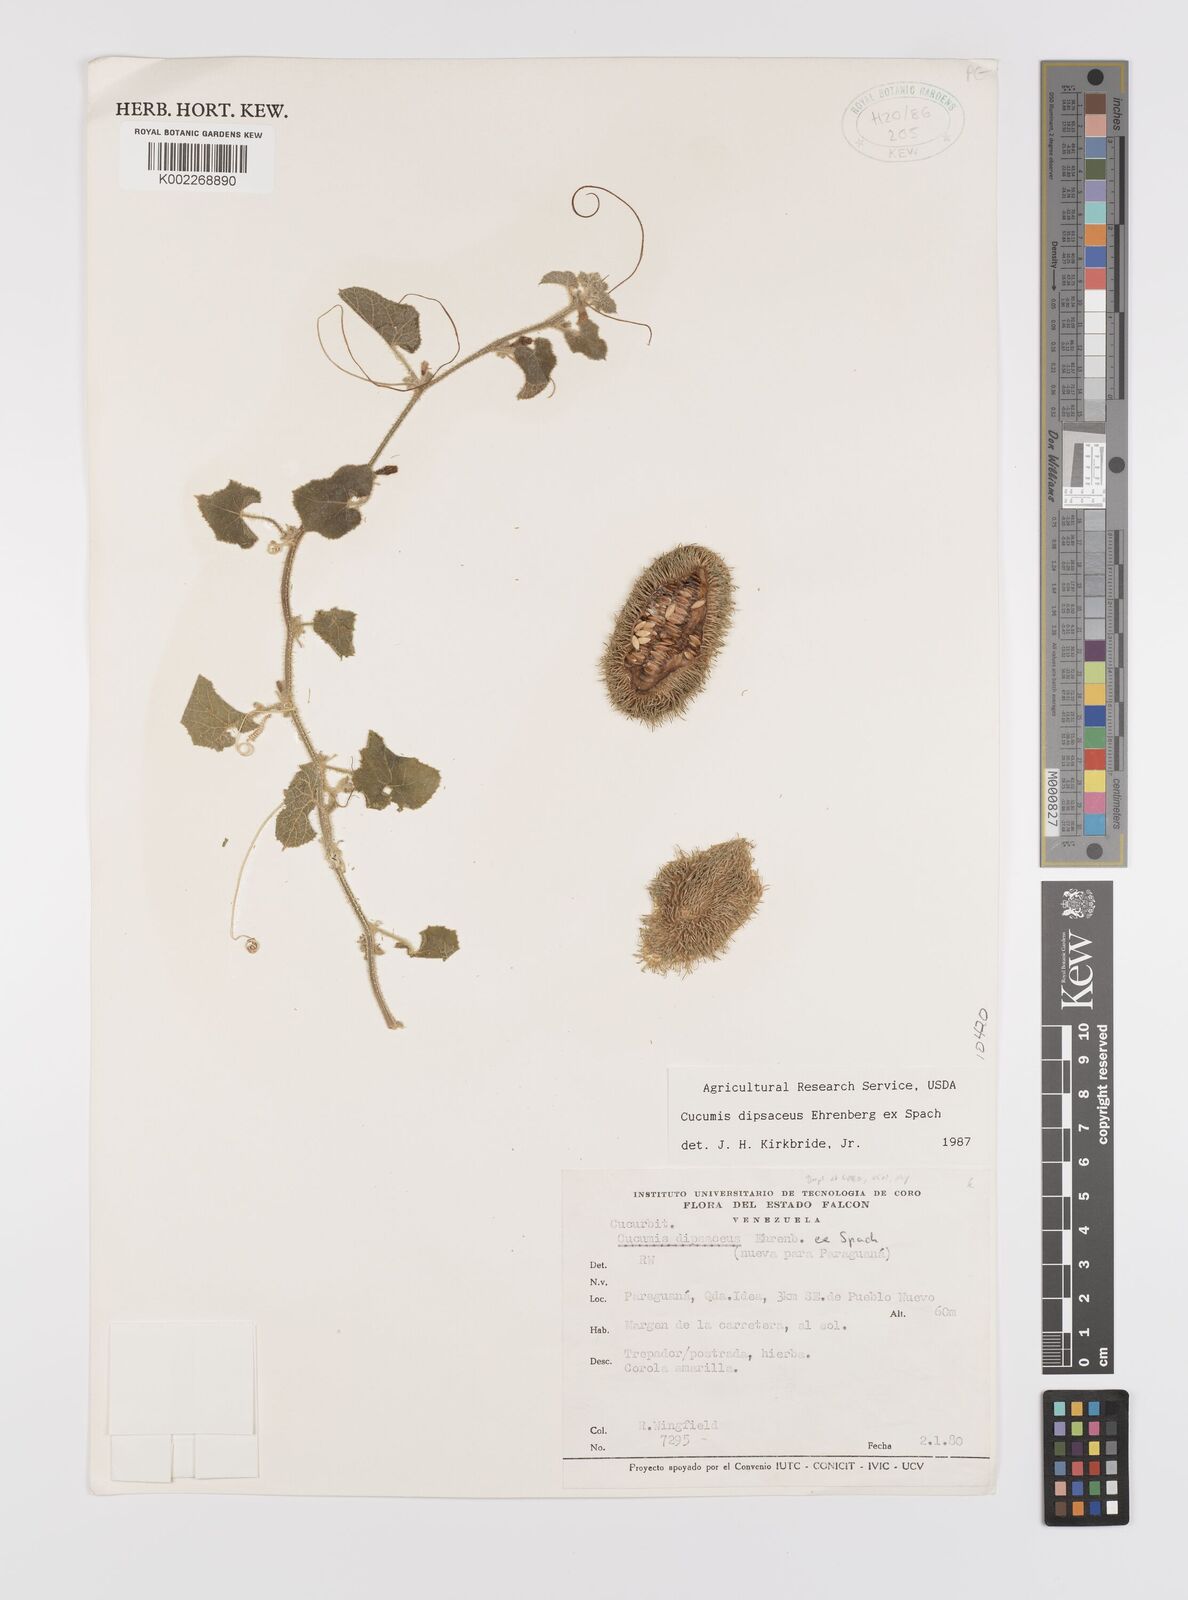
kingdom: Plantae
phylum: Tracheophyta
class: Magnoliopsida
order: Cucurbitales
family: Cucurbitaceae
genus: Cucumis
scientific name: Cucumis
